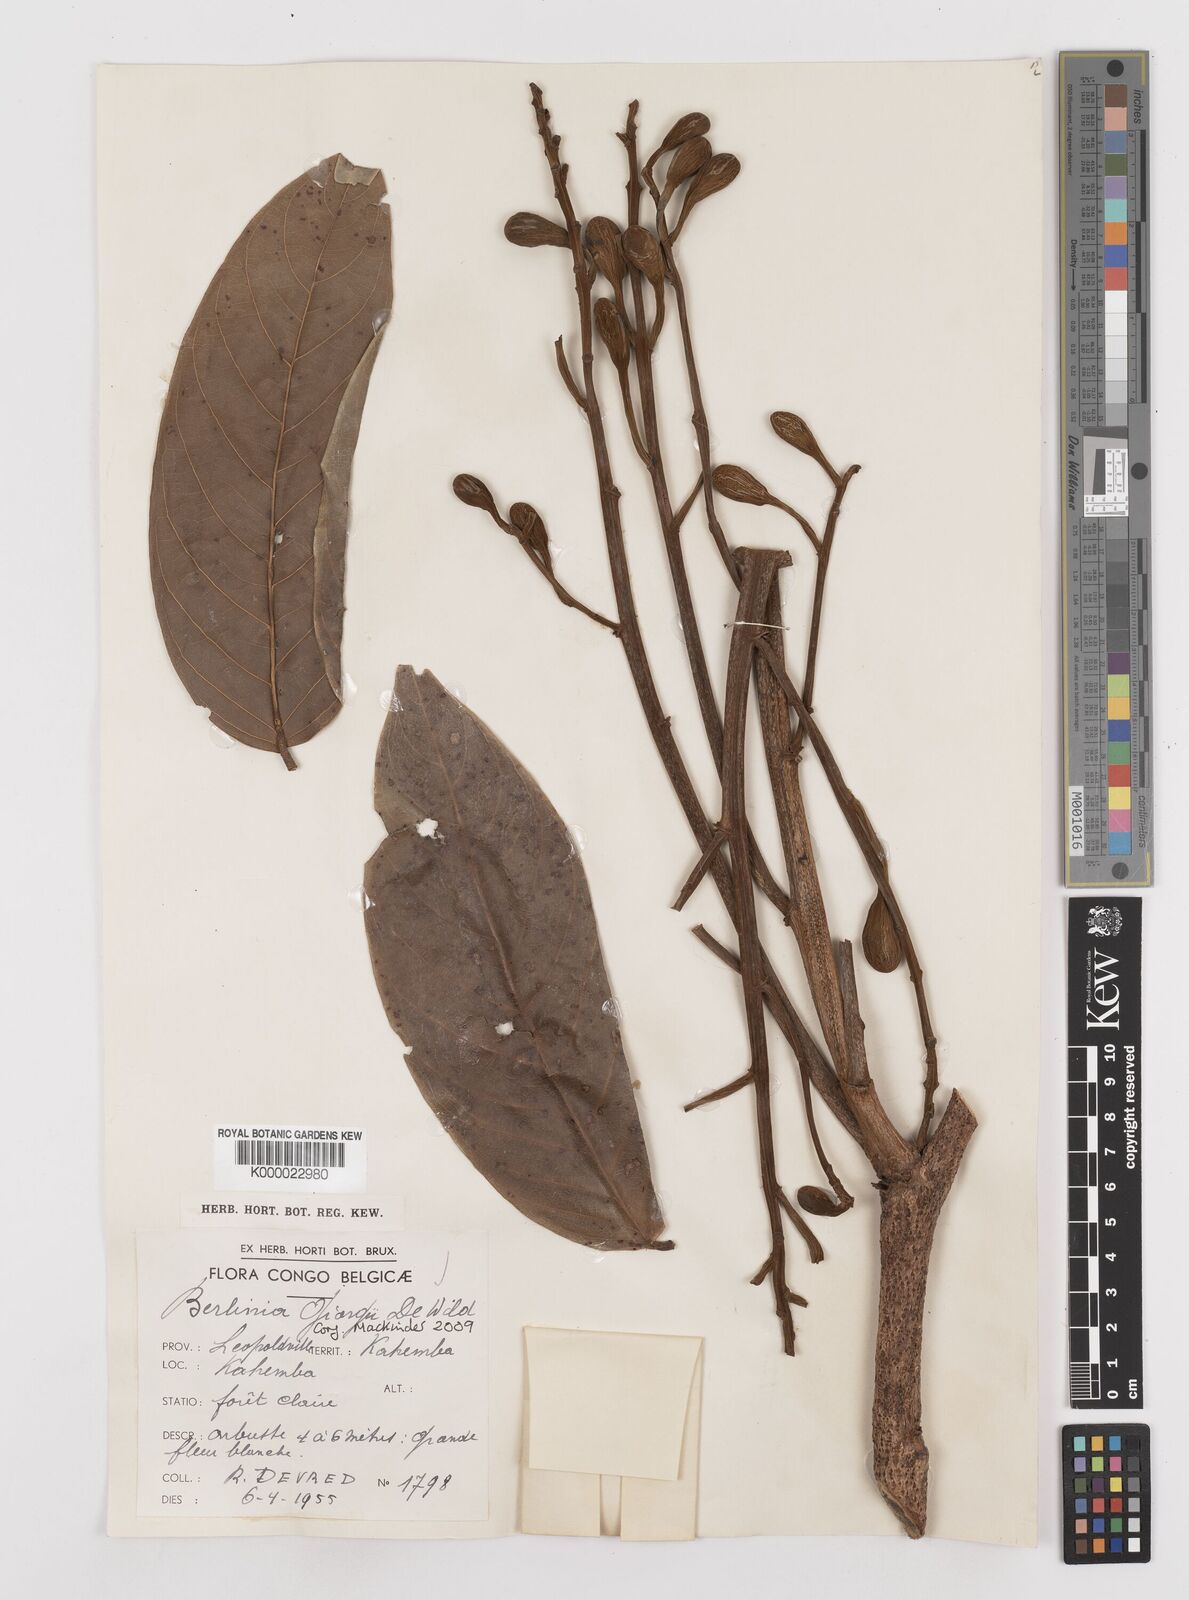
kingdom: Plantae
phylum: Tracheophyta
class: Magnoliopsida
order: Fabales
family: Fabaceae
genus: Berlinia
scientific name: Berlinia giorgii
